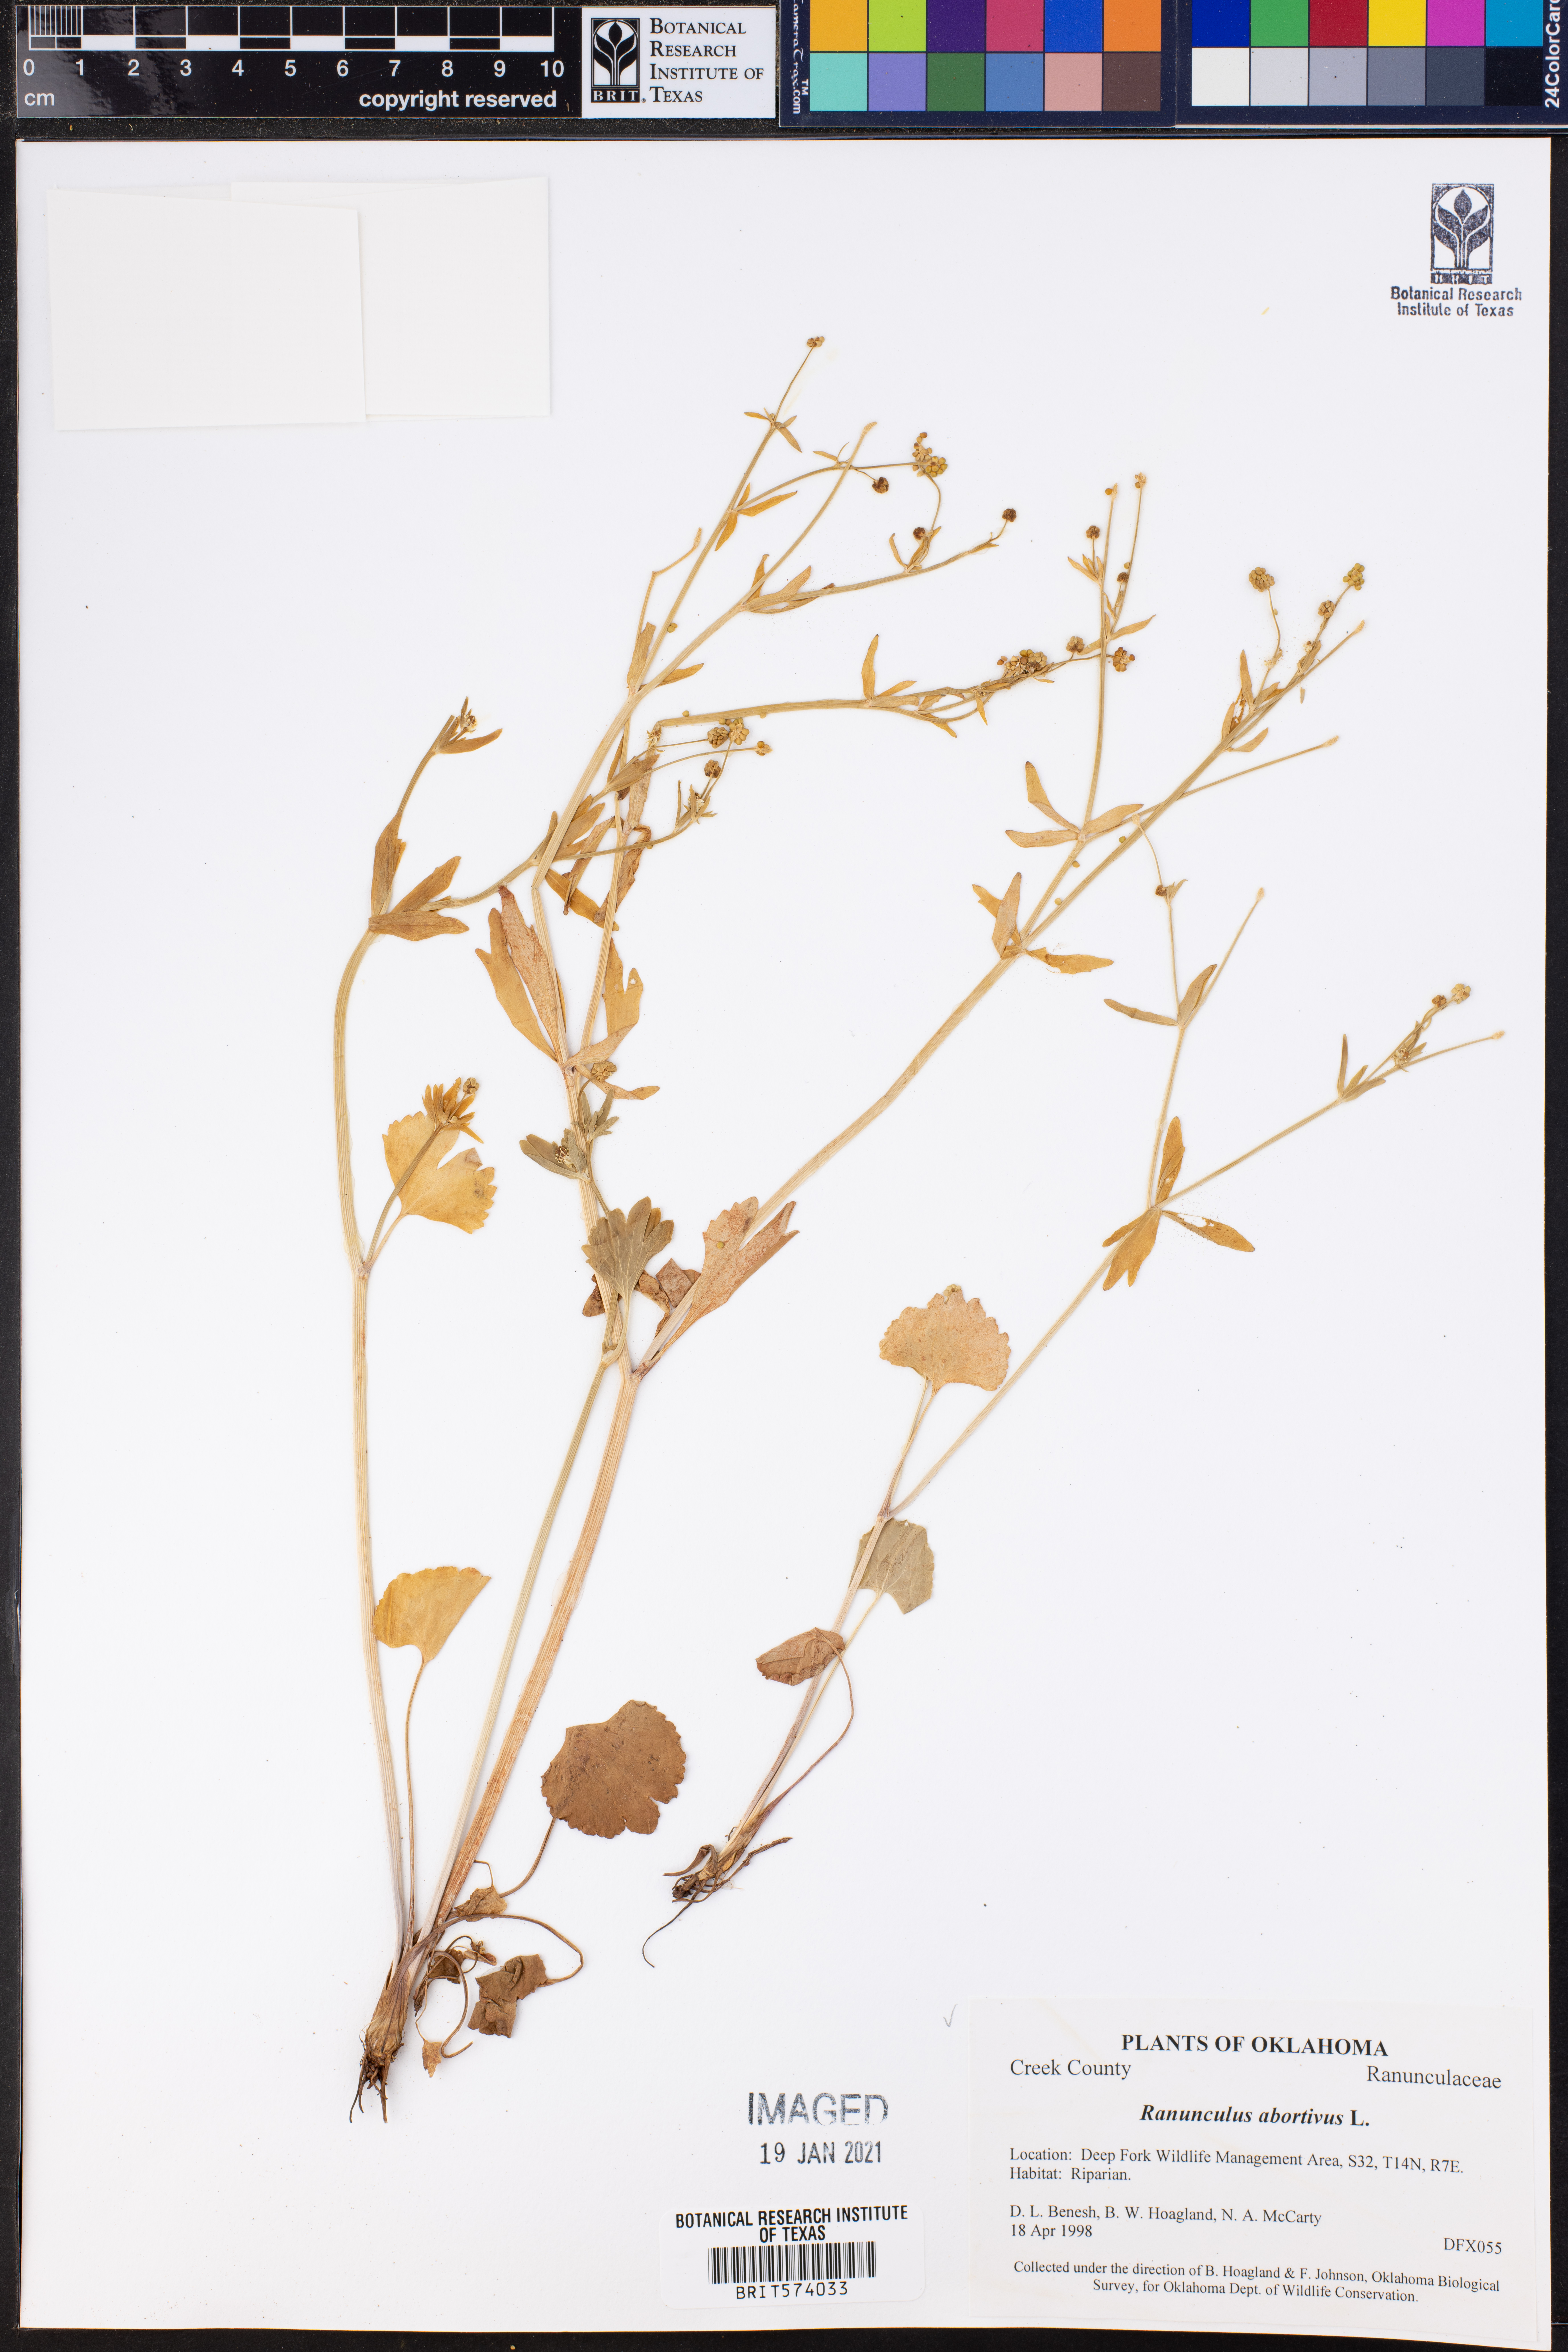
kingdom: Plantae
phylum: Tracheophyta
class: Magnoliopsida
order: Ranunculales
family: Ranunculaceae
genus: Ranunculus
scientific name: Ranunculus abortivus
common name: Early wood buttercup
